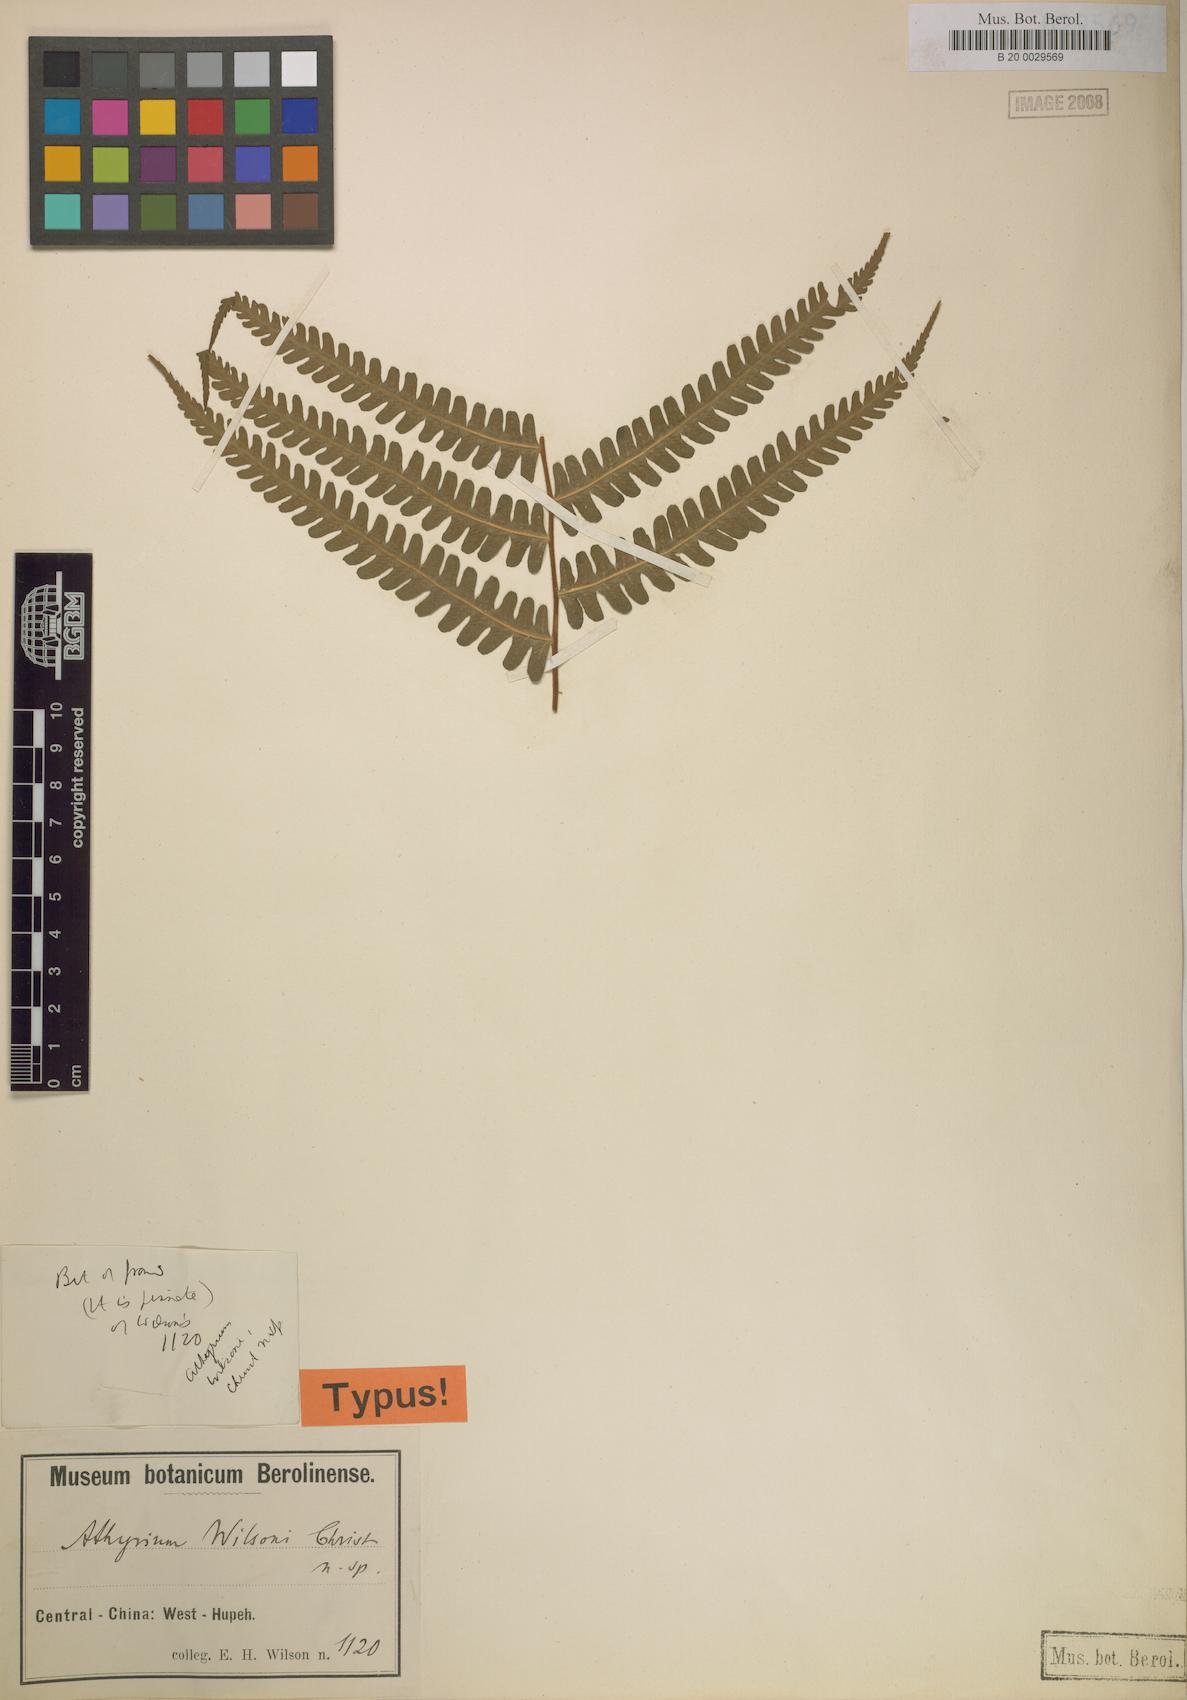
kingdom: Plantae
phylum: Tracheophyta
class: Polypodiopsida
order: Polypodiales
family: Athyriaceae
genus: Deparia
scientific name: Deparia wilsonii
